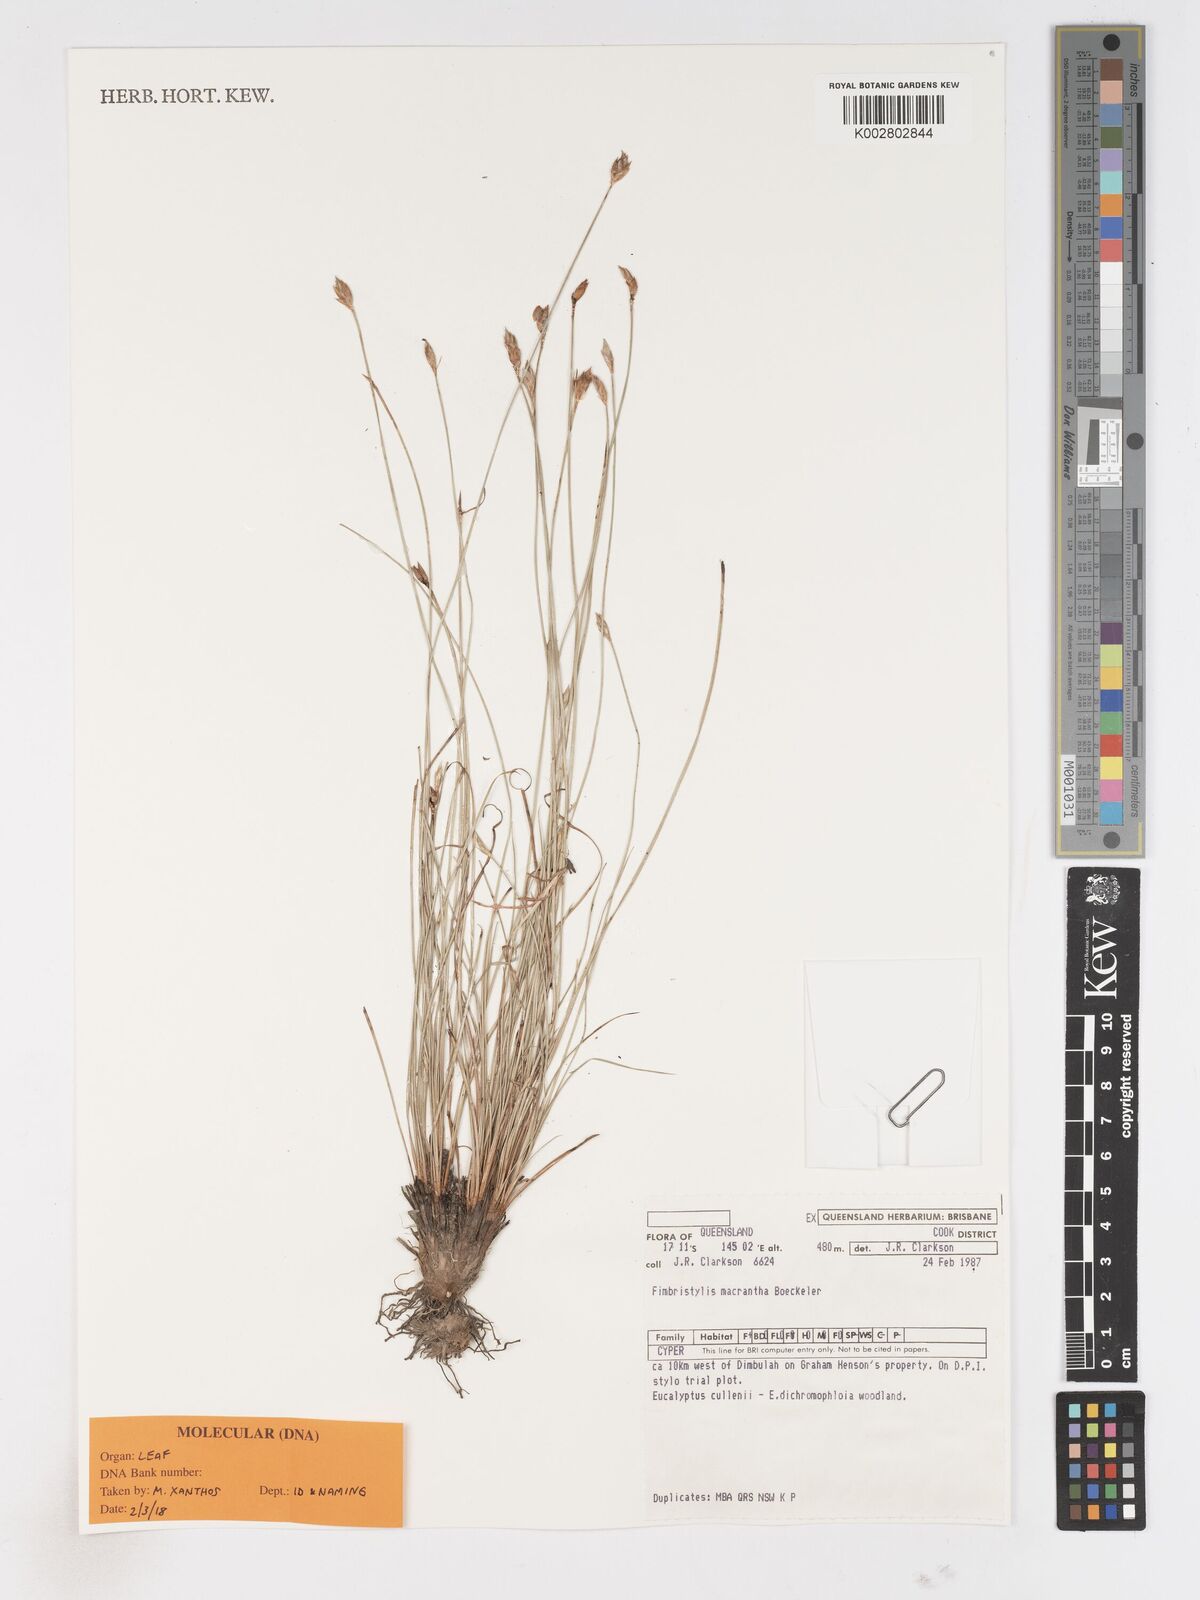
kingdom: Plantae
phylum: Tracheophyta
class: Liliopsida
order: Poales
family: Cyperaceae
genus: Abildgaardia
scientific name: Abildgaardia macrantha
